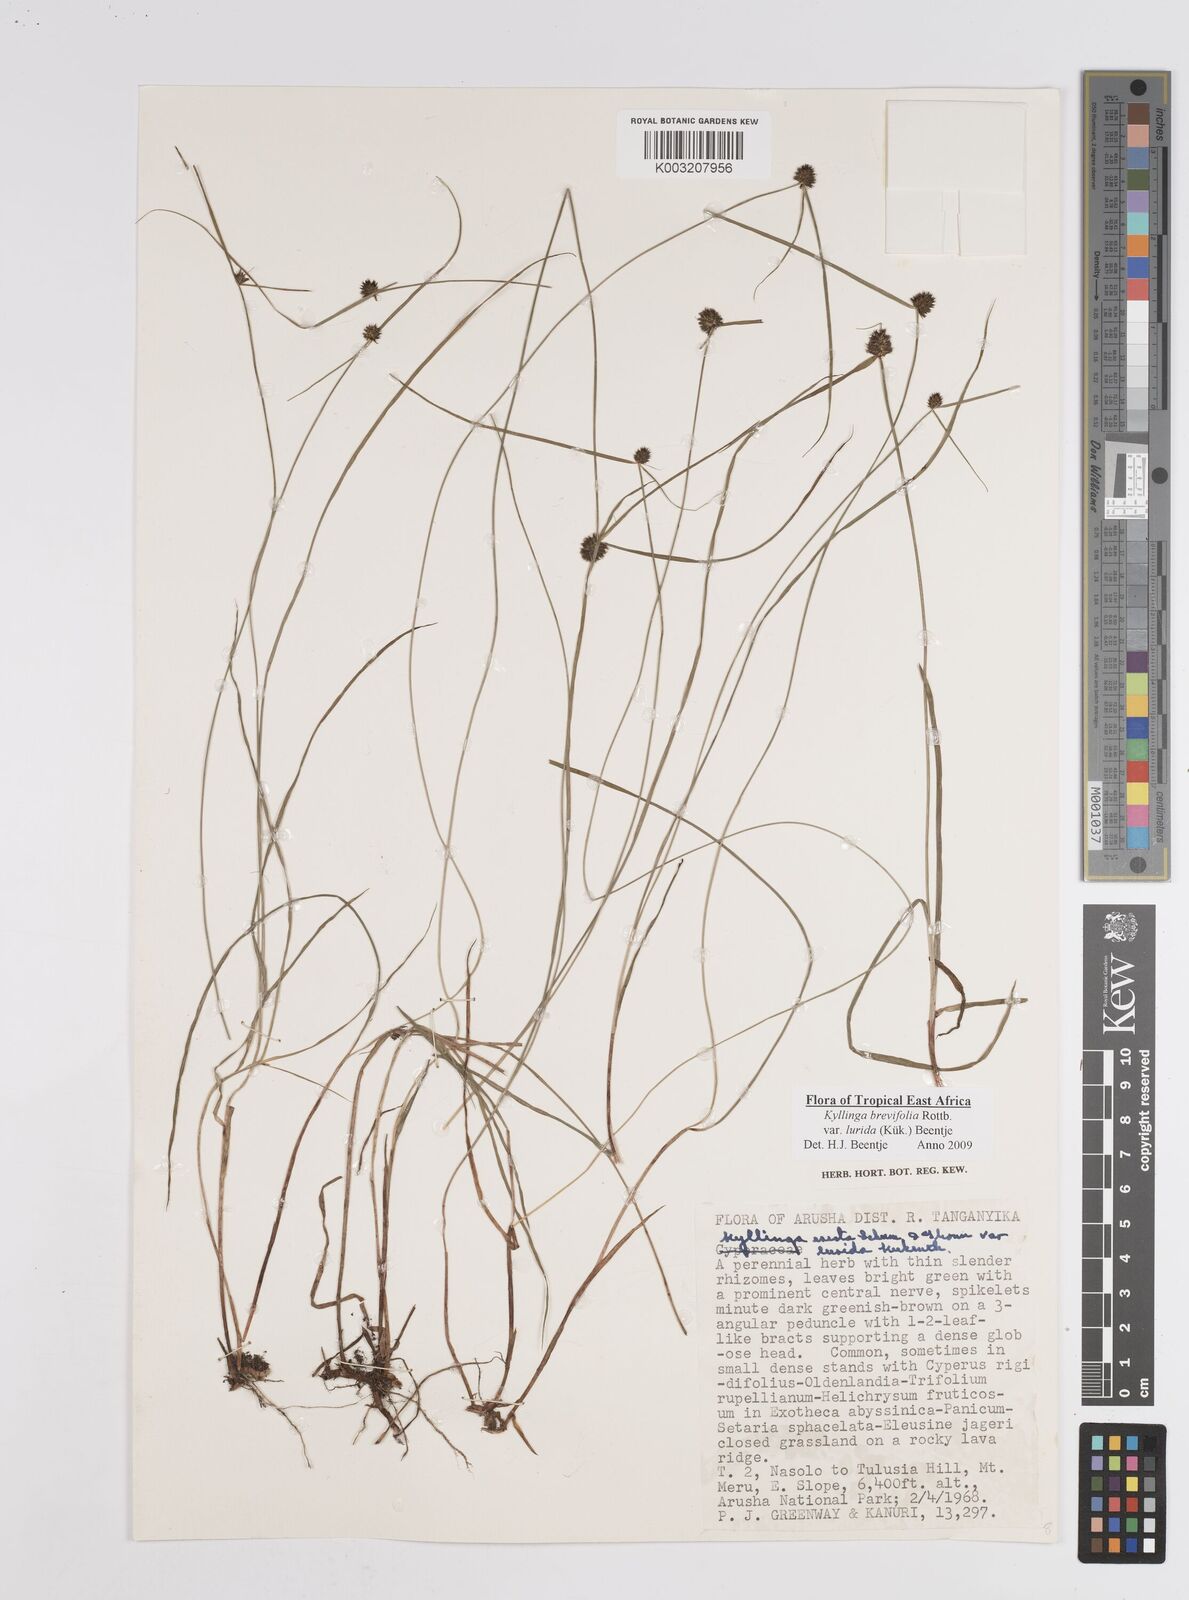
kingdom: Plantae
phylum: Tracheophyta
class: Liliopsida
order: Poales
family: Cyperaceae
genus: Cyperus
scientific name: Cyperus erectus
